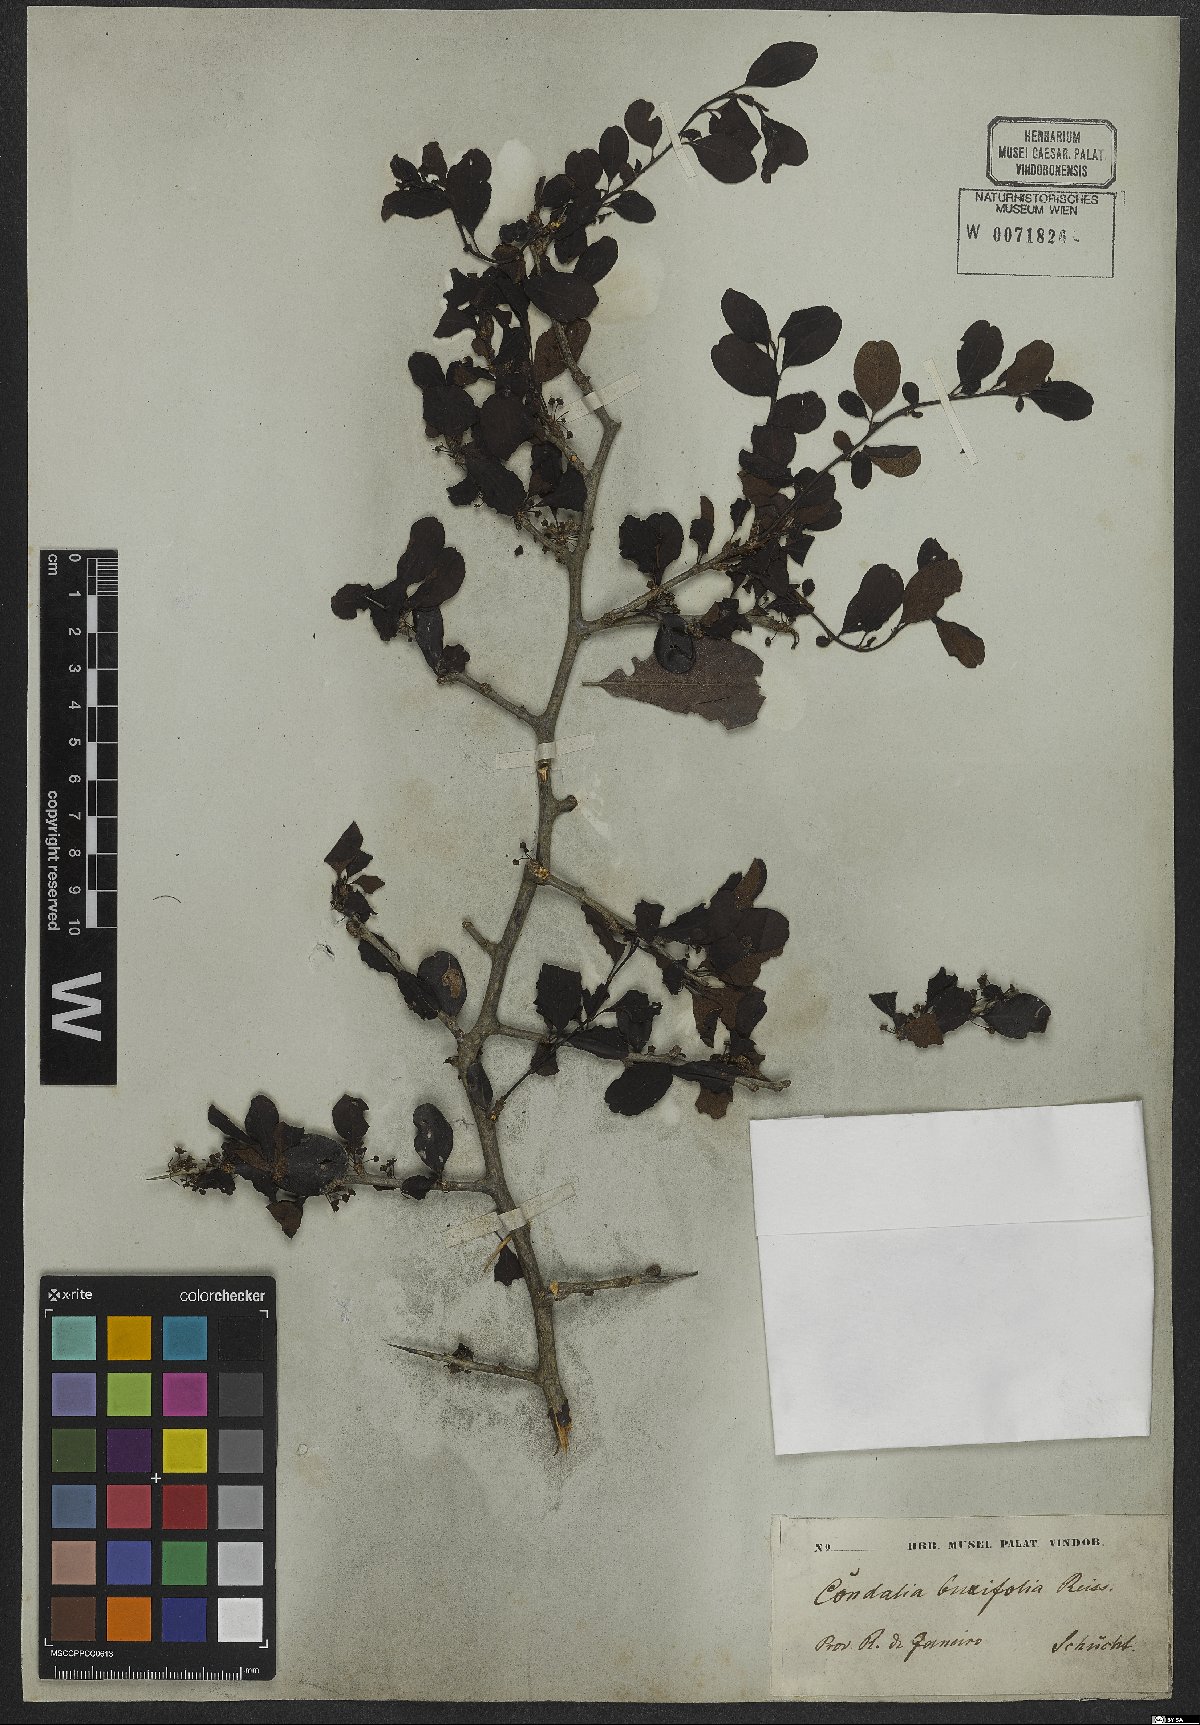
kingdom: Plantae
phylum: Tracheophyta
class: Magnoliopsida
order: Rosales
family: Rhamnaceae
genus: Condalia
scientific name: Condalia buxifolia
